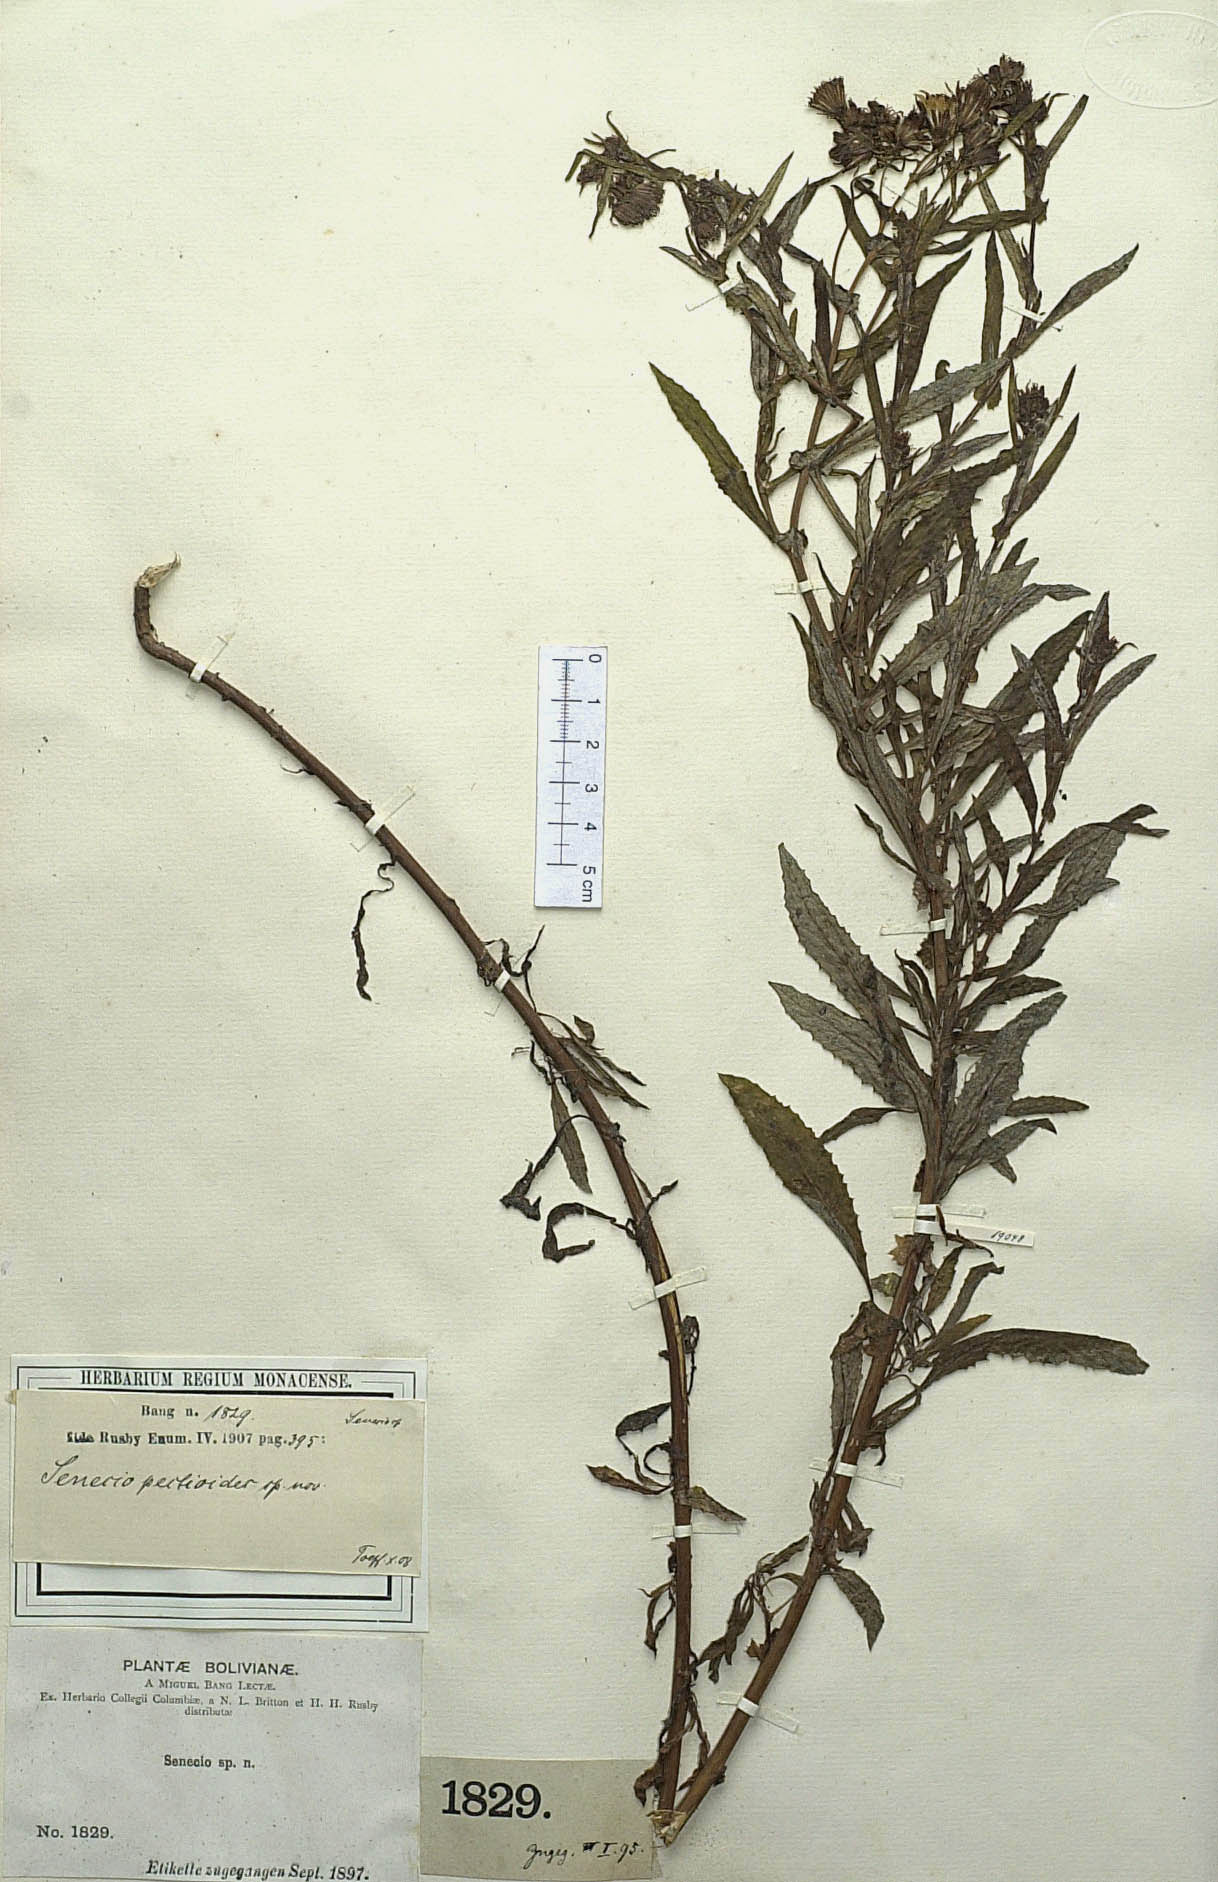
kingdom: Plantae
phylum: Tracheophyta
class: Magnoliopsida
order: Asterales
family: Asteraceae
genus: Senecio
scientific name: Senecio boliviensis
